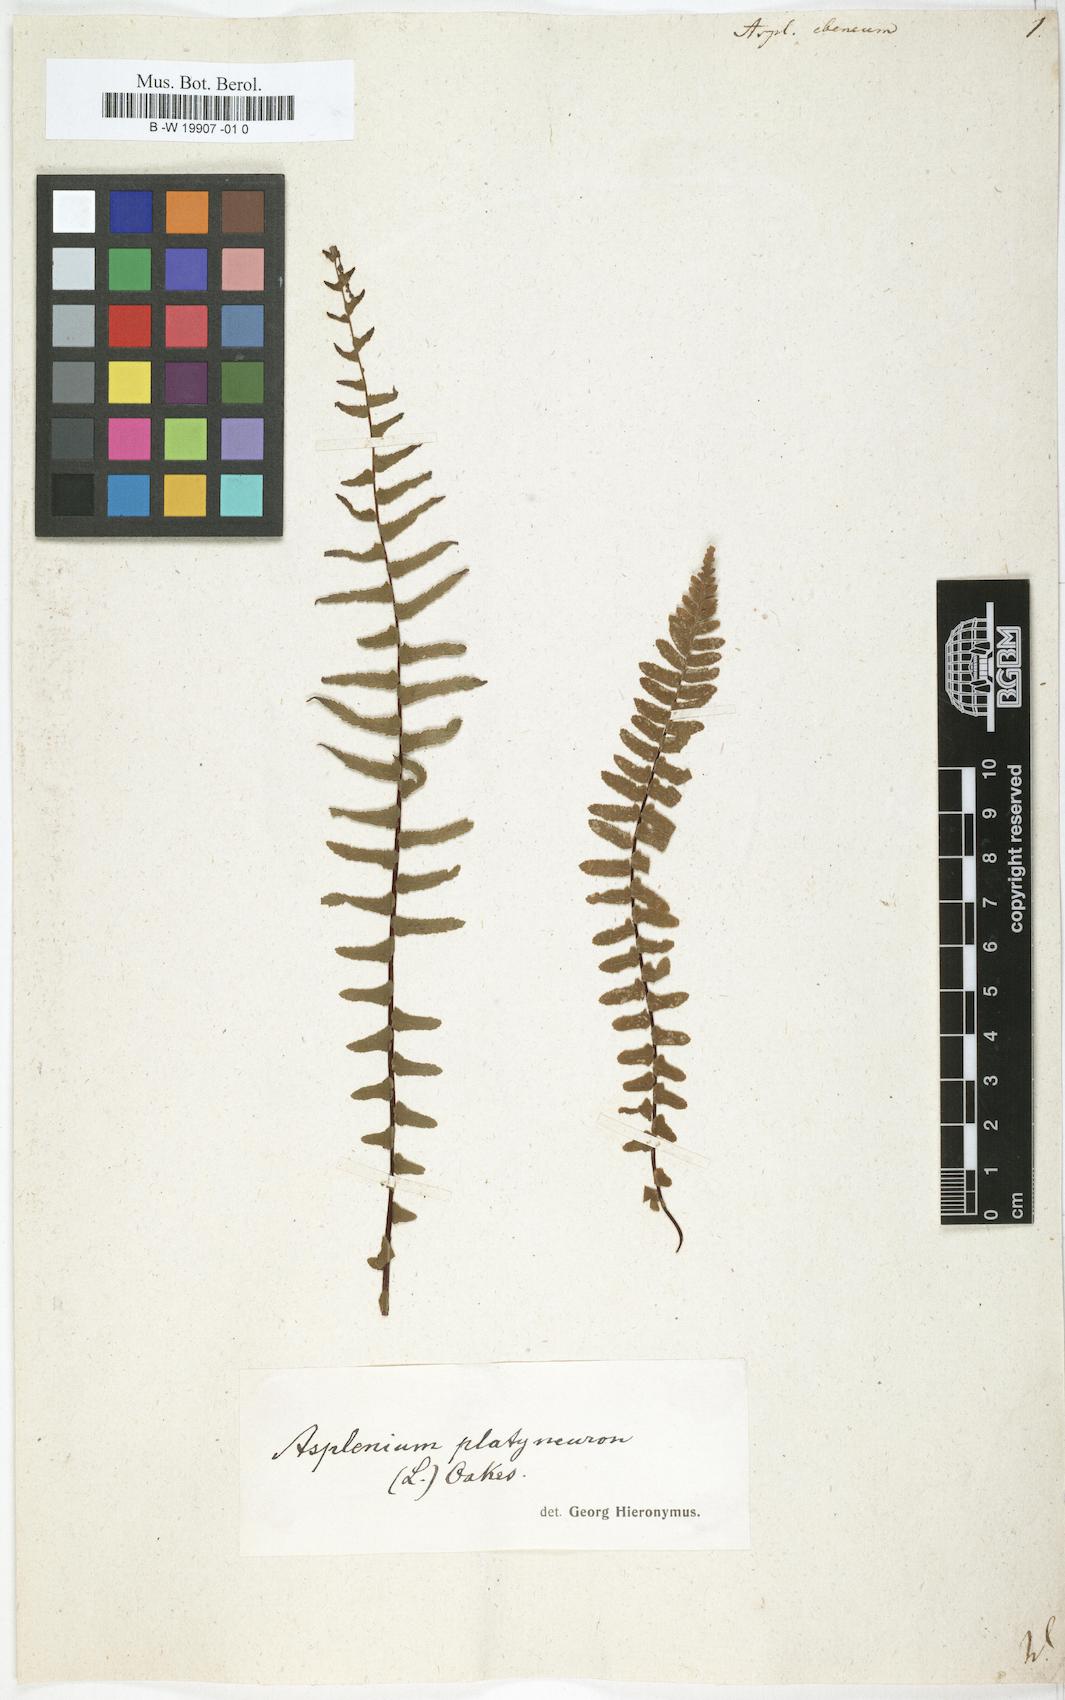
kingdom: Plantae
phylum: Tracheophyta
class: Polypodiopsida
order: Polypodiales
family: Aspleniaceae
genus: Asplenium
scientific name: Asplenium ebenum
